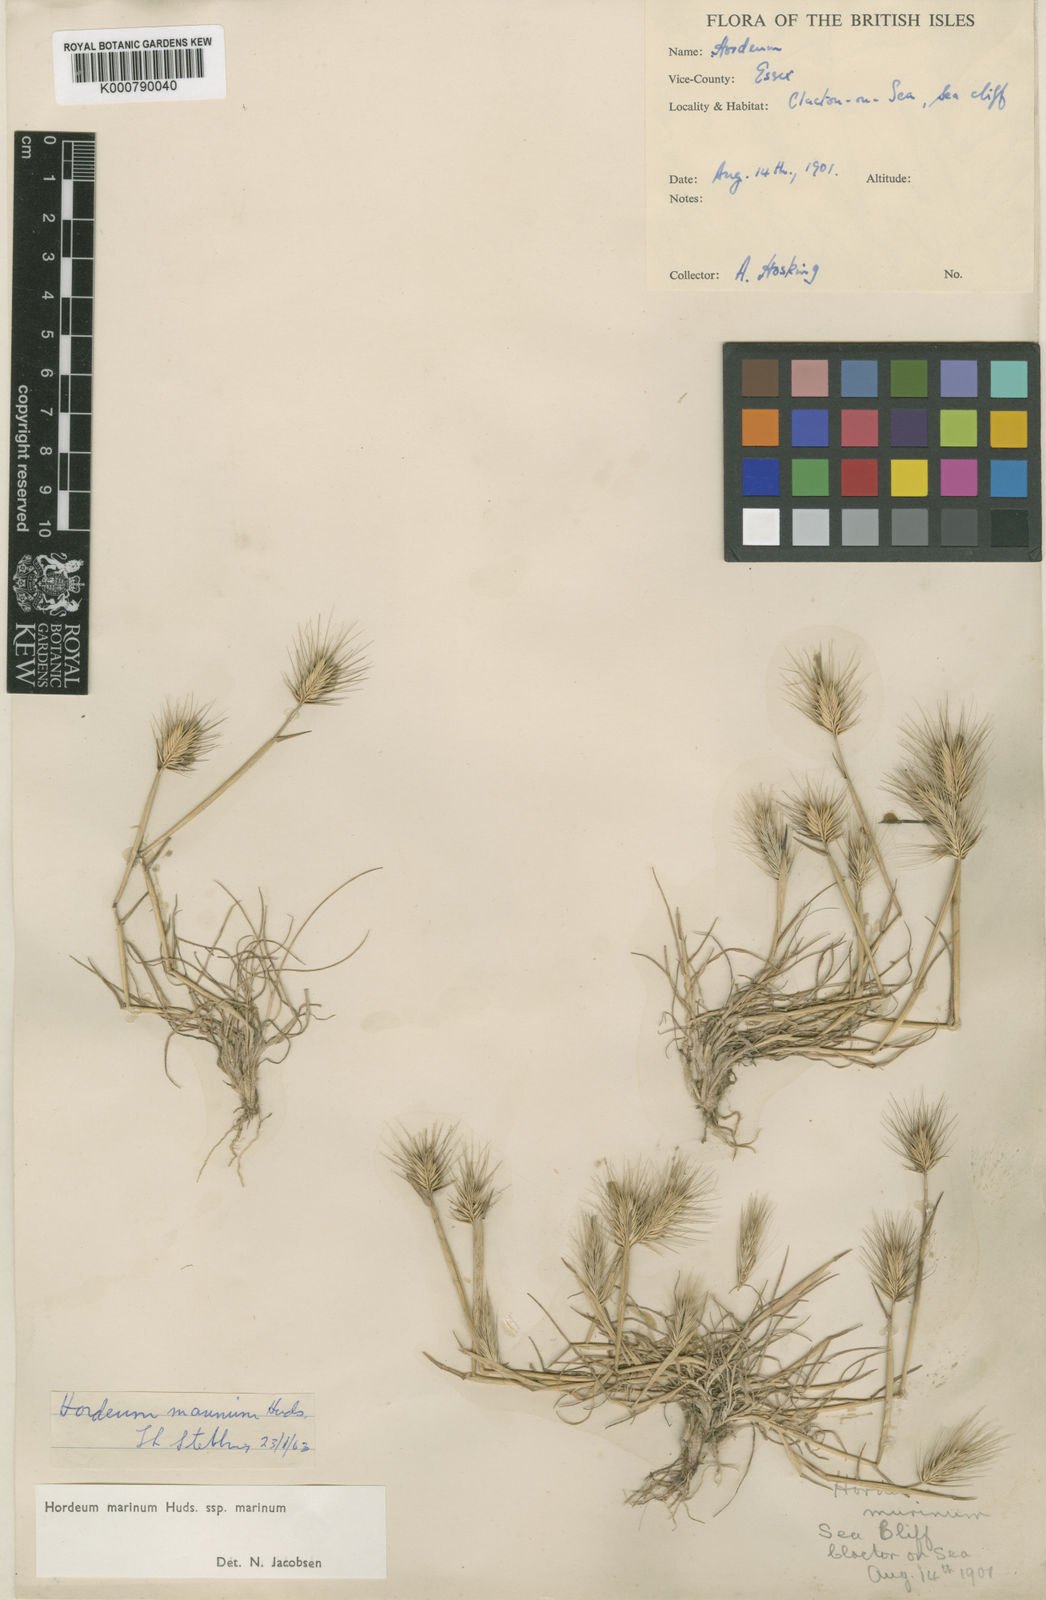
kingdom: Plantae
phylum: Tracheophyta
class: Liliopsida
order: Poales
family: Poaceae
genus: Hordeum
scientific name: Hordeum marinum
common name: Sea barley
